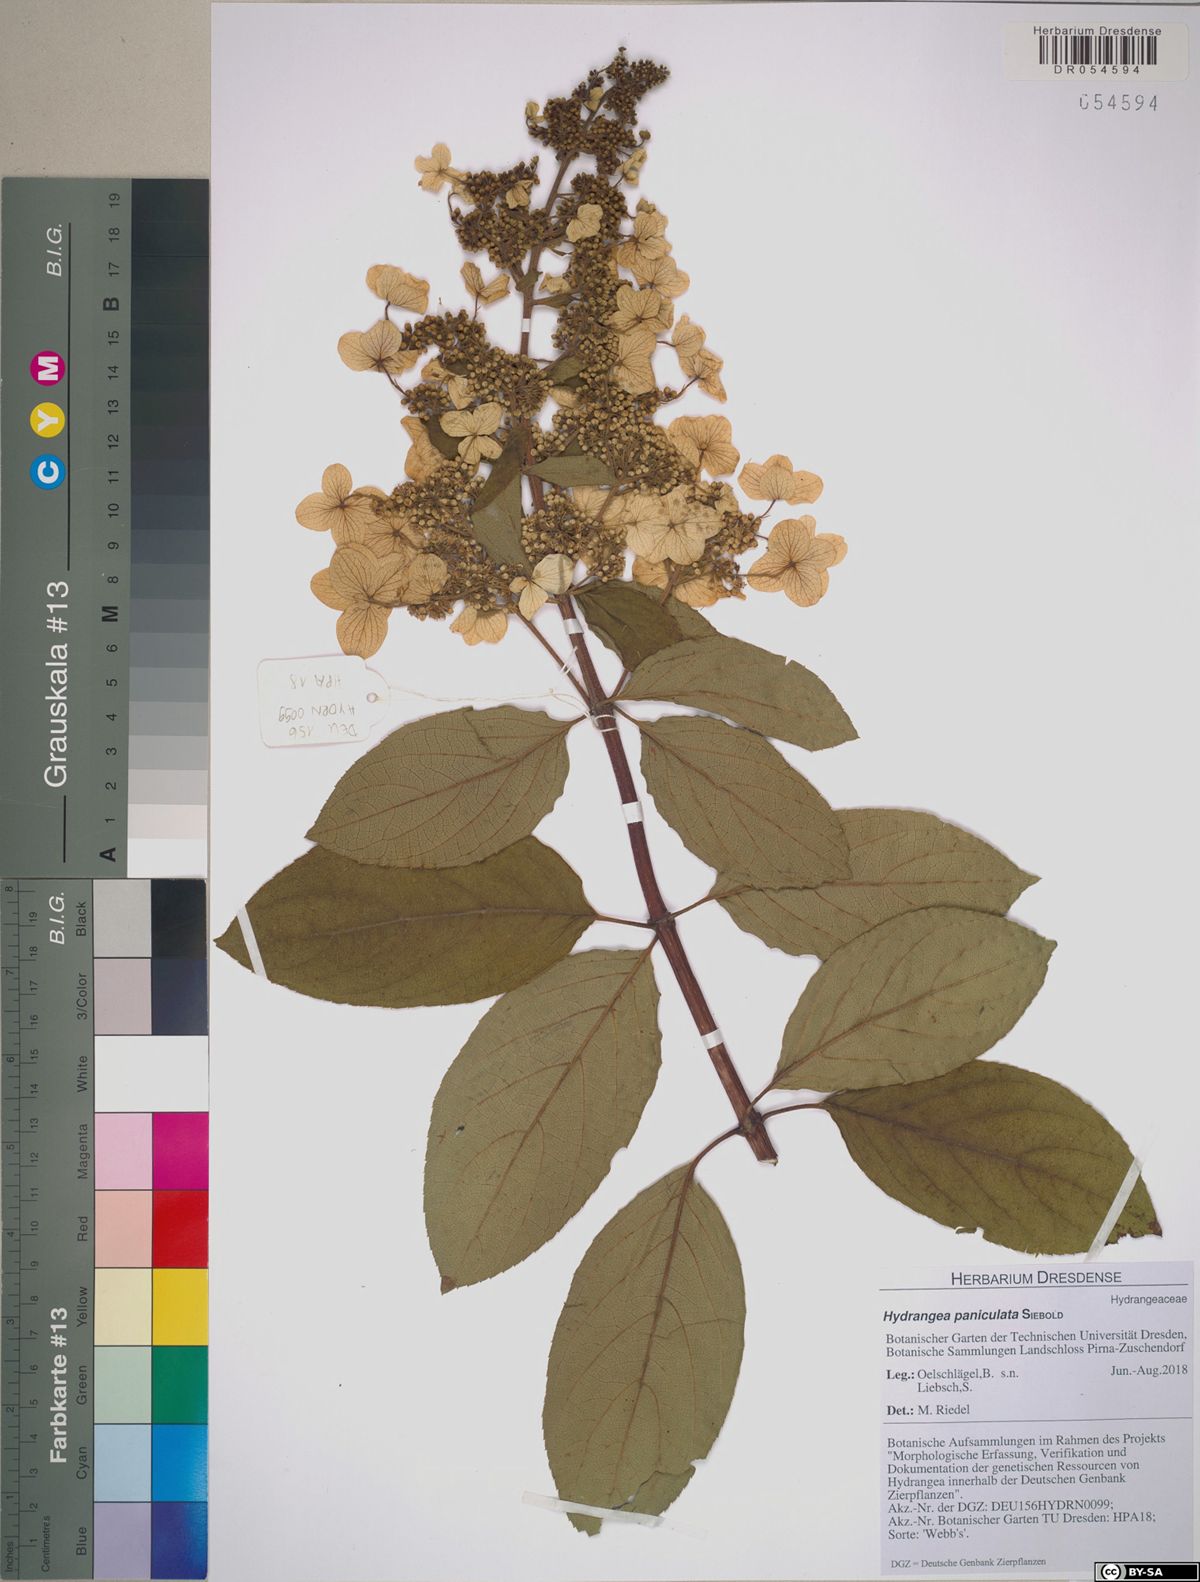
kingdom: Plantae
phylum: Tracheophyta
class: Magnoliopsida
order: Cornales
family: Hydrangeaceae
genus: Hydrangea
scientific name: Hydrangea paniculata
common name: Panicled hydrangea
